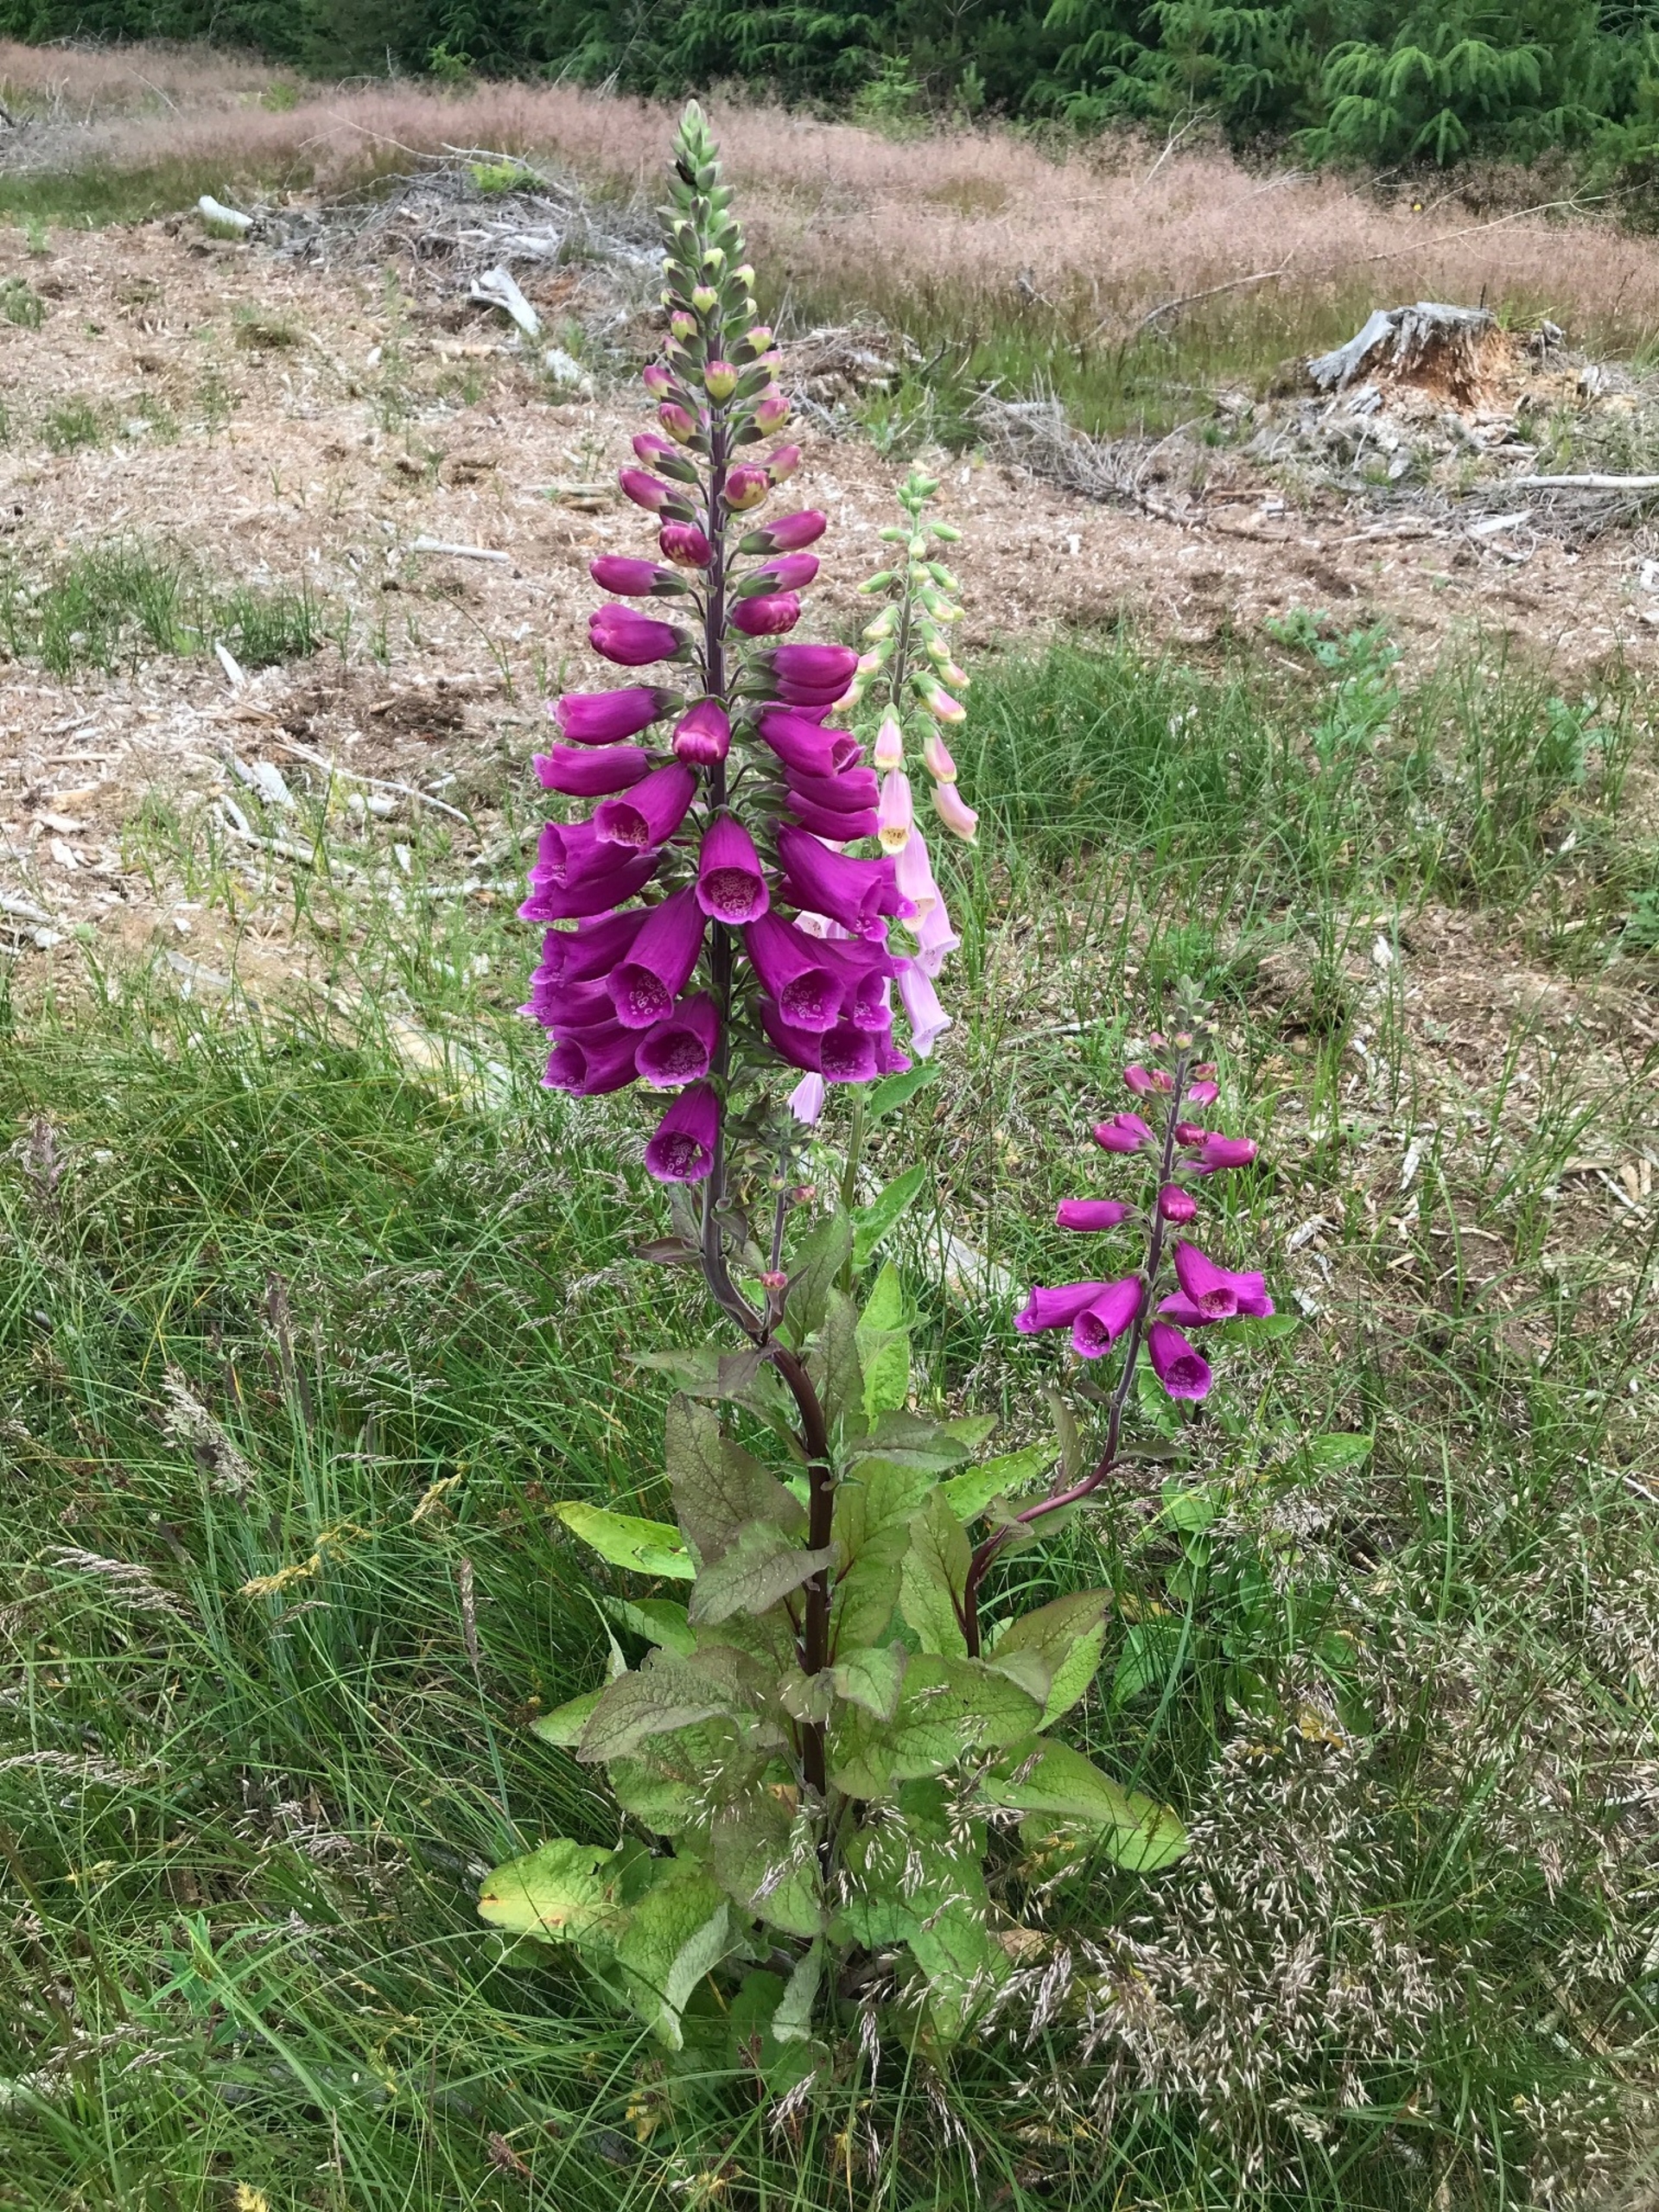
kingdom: Plantae
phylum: Tracheophyta
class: Magnoliopsida
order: Lamiales
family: Plantaginaceae
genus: Digitalis
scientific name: Digitalis purpurea
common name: Almindelig fingerbøl
